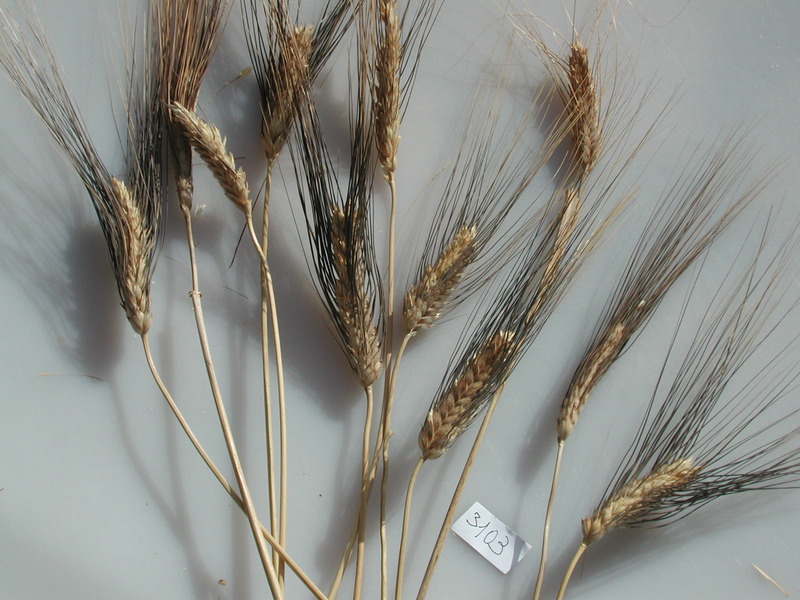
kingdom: Plantae
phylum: Tracheophyta
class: Liliopsida
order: Poales
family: Poaceae
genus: Triticum
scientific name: Triticum turgidum
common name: Wheat
